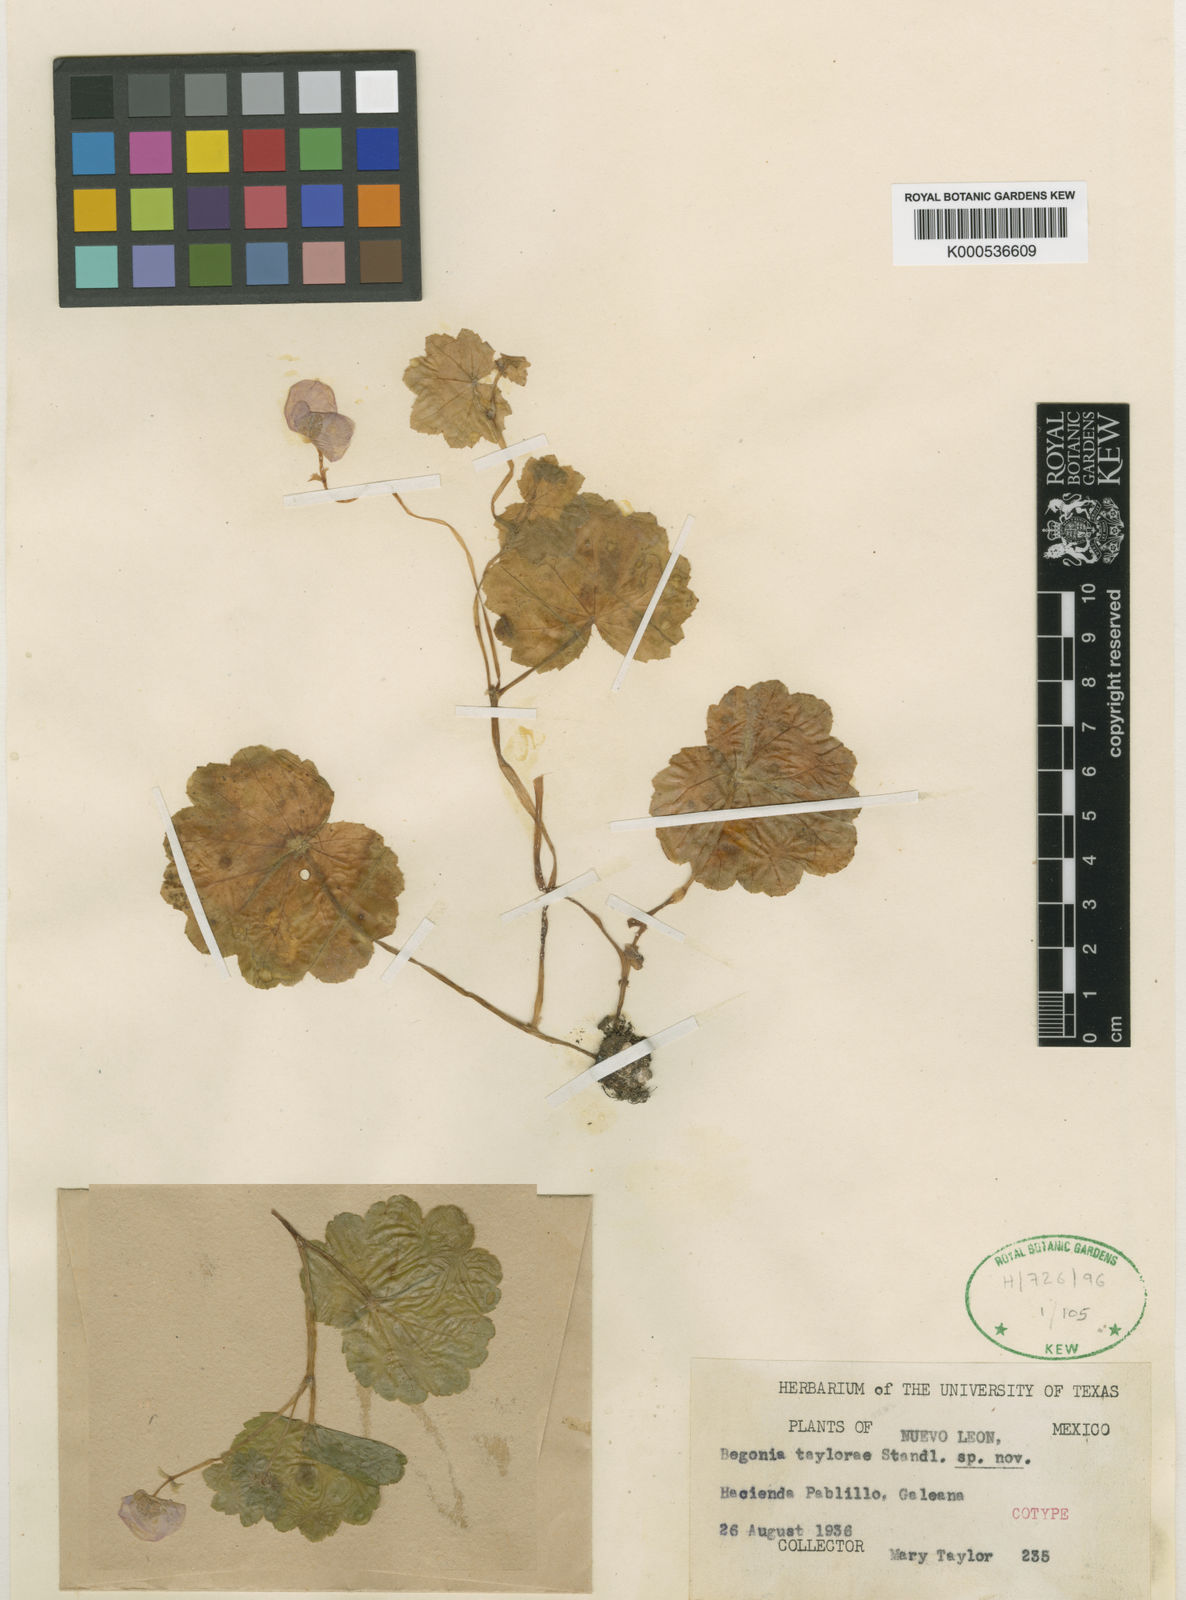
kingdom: Plantae
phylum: Tracheophyta
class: Magnoliopsida
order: Cucurbitales
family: Begoniaceae
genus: Begonia
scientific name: Begonia
